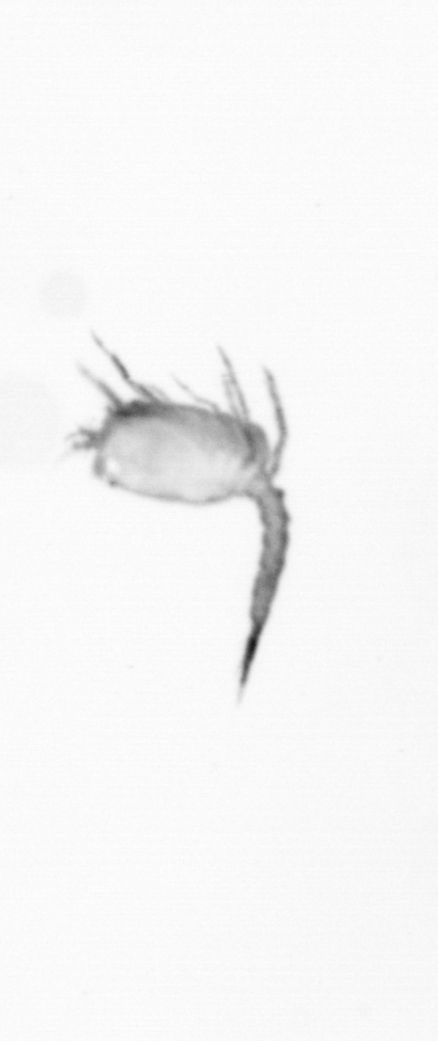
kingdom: Animalia
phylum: Arthropoda
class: Copepoda
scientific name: Copepoda
